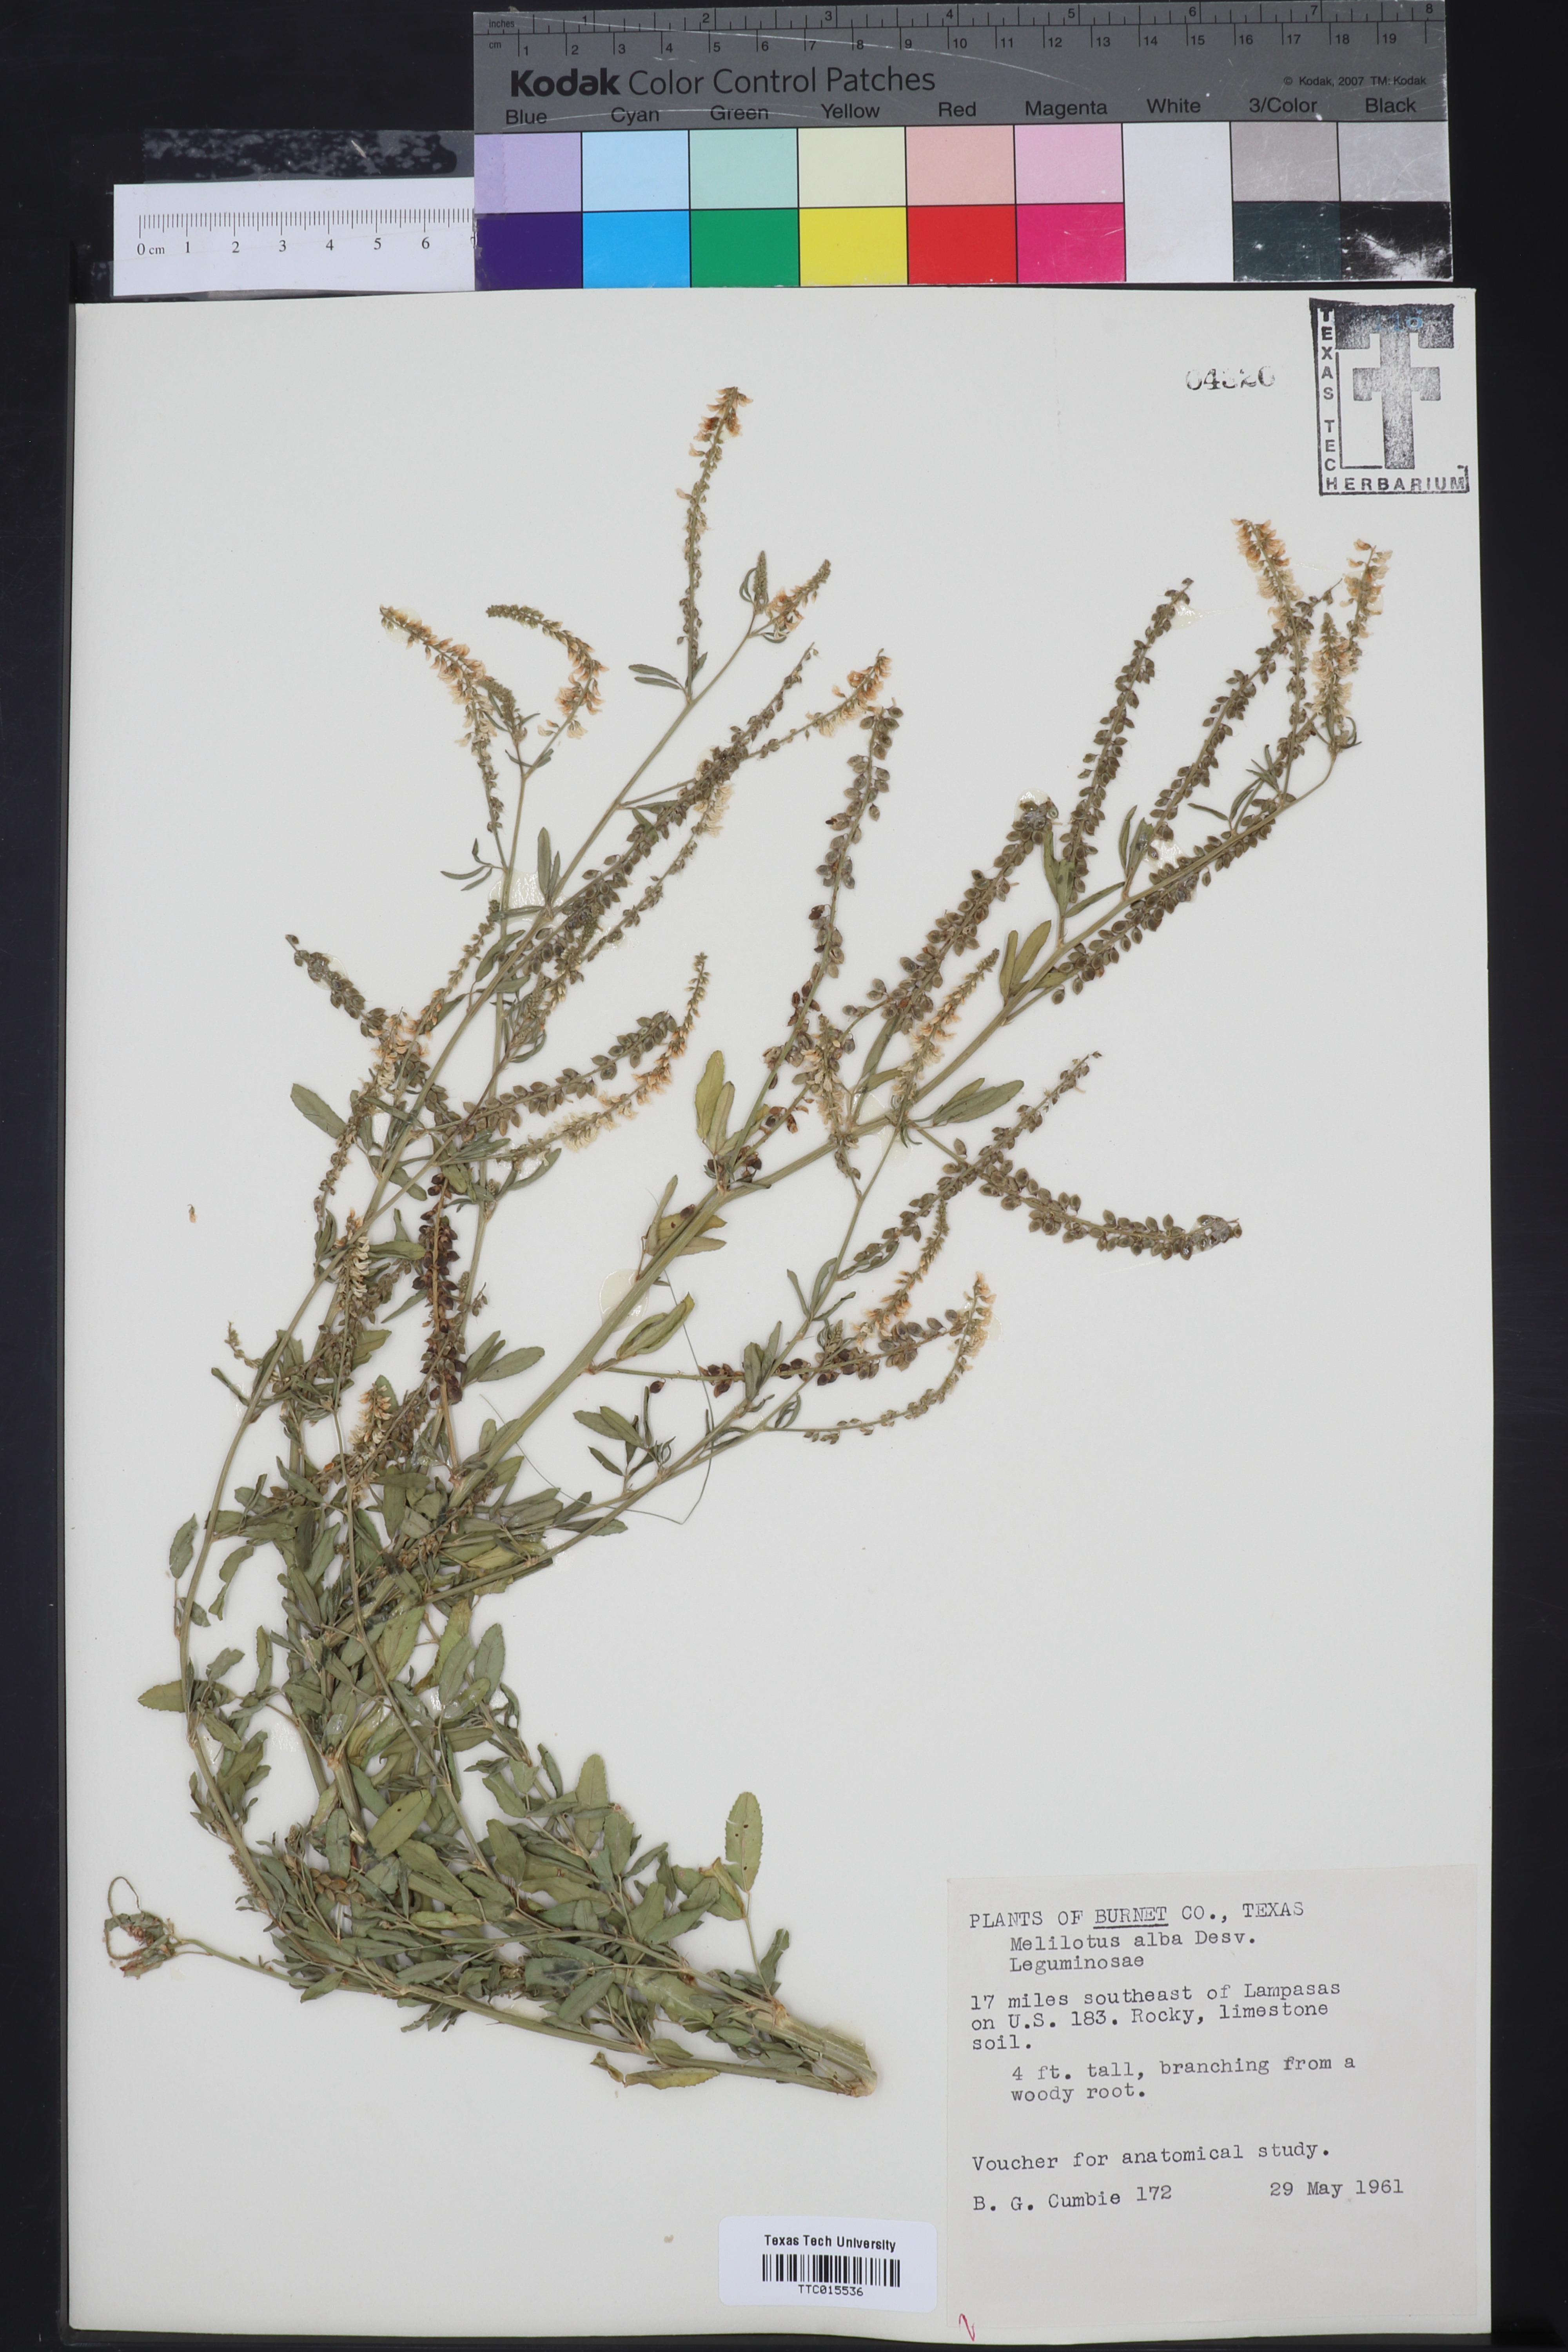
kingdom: Plantae
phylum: Tracheophyta
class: Magnoliopsida
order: Fabales
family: Fabaceae
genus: Melilotus
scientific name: Melilotus albus
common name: White melilot
